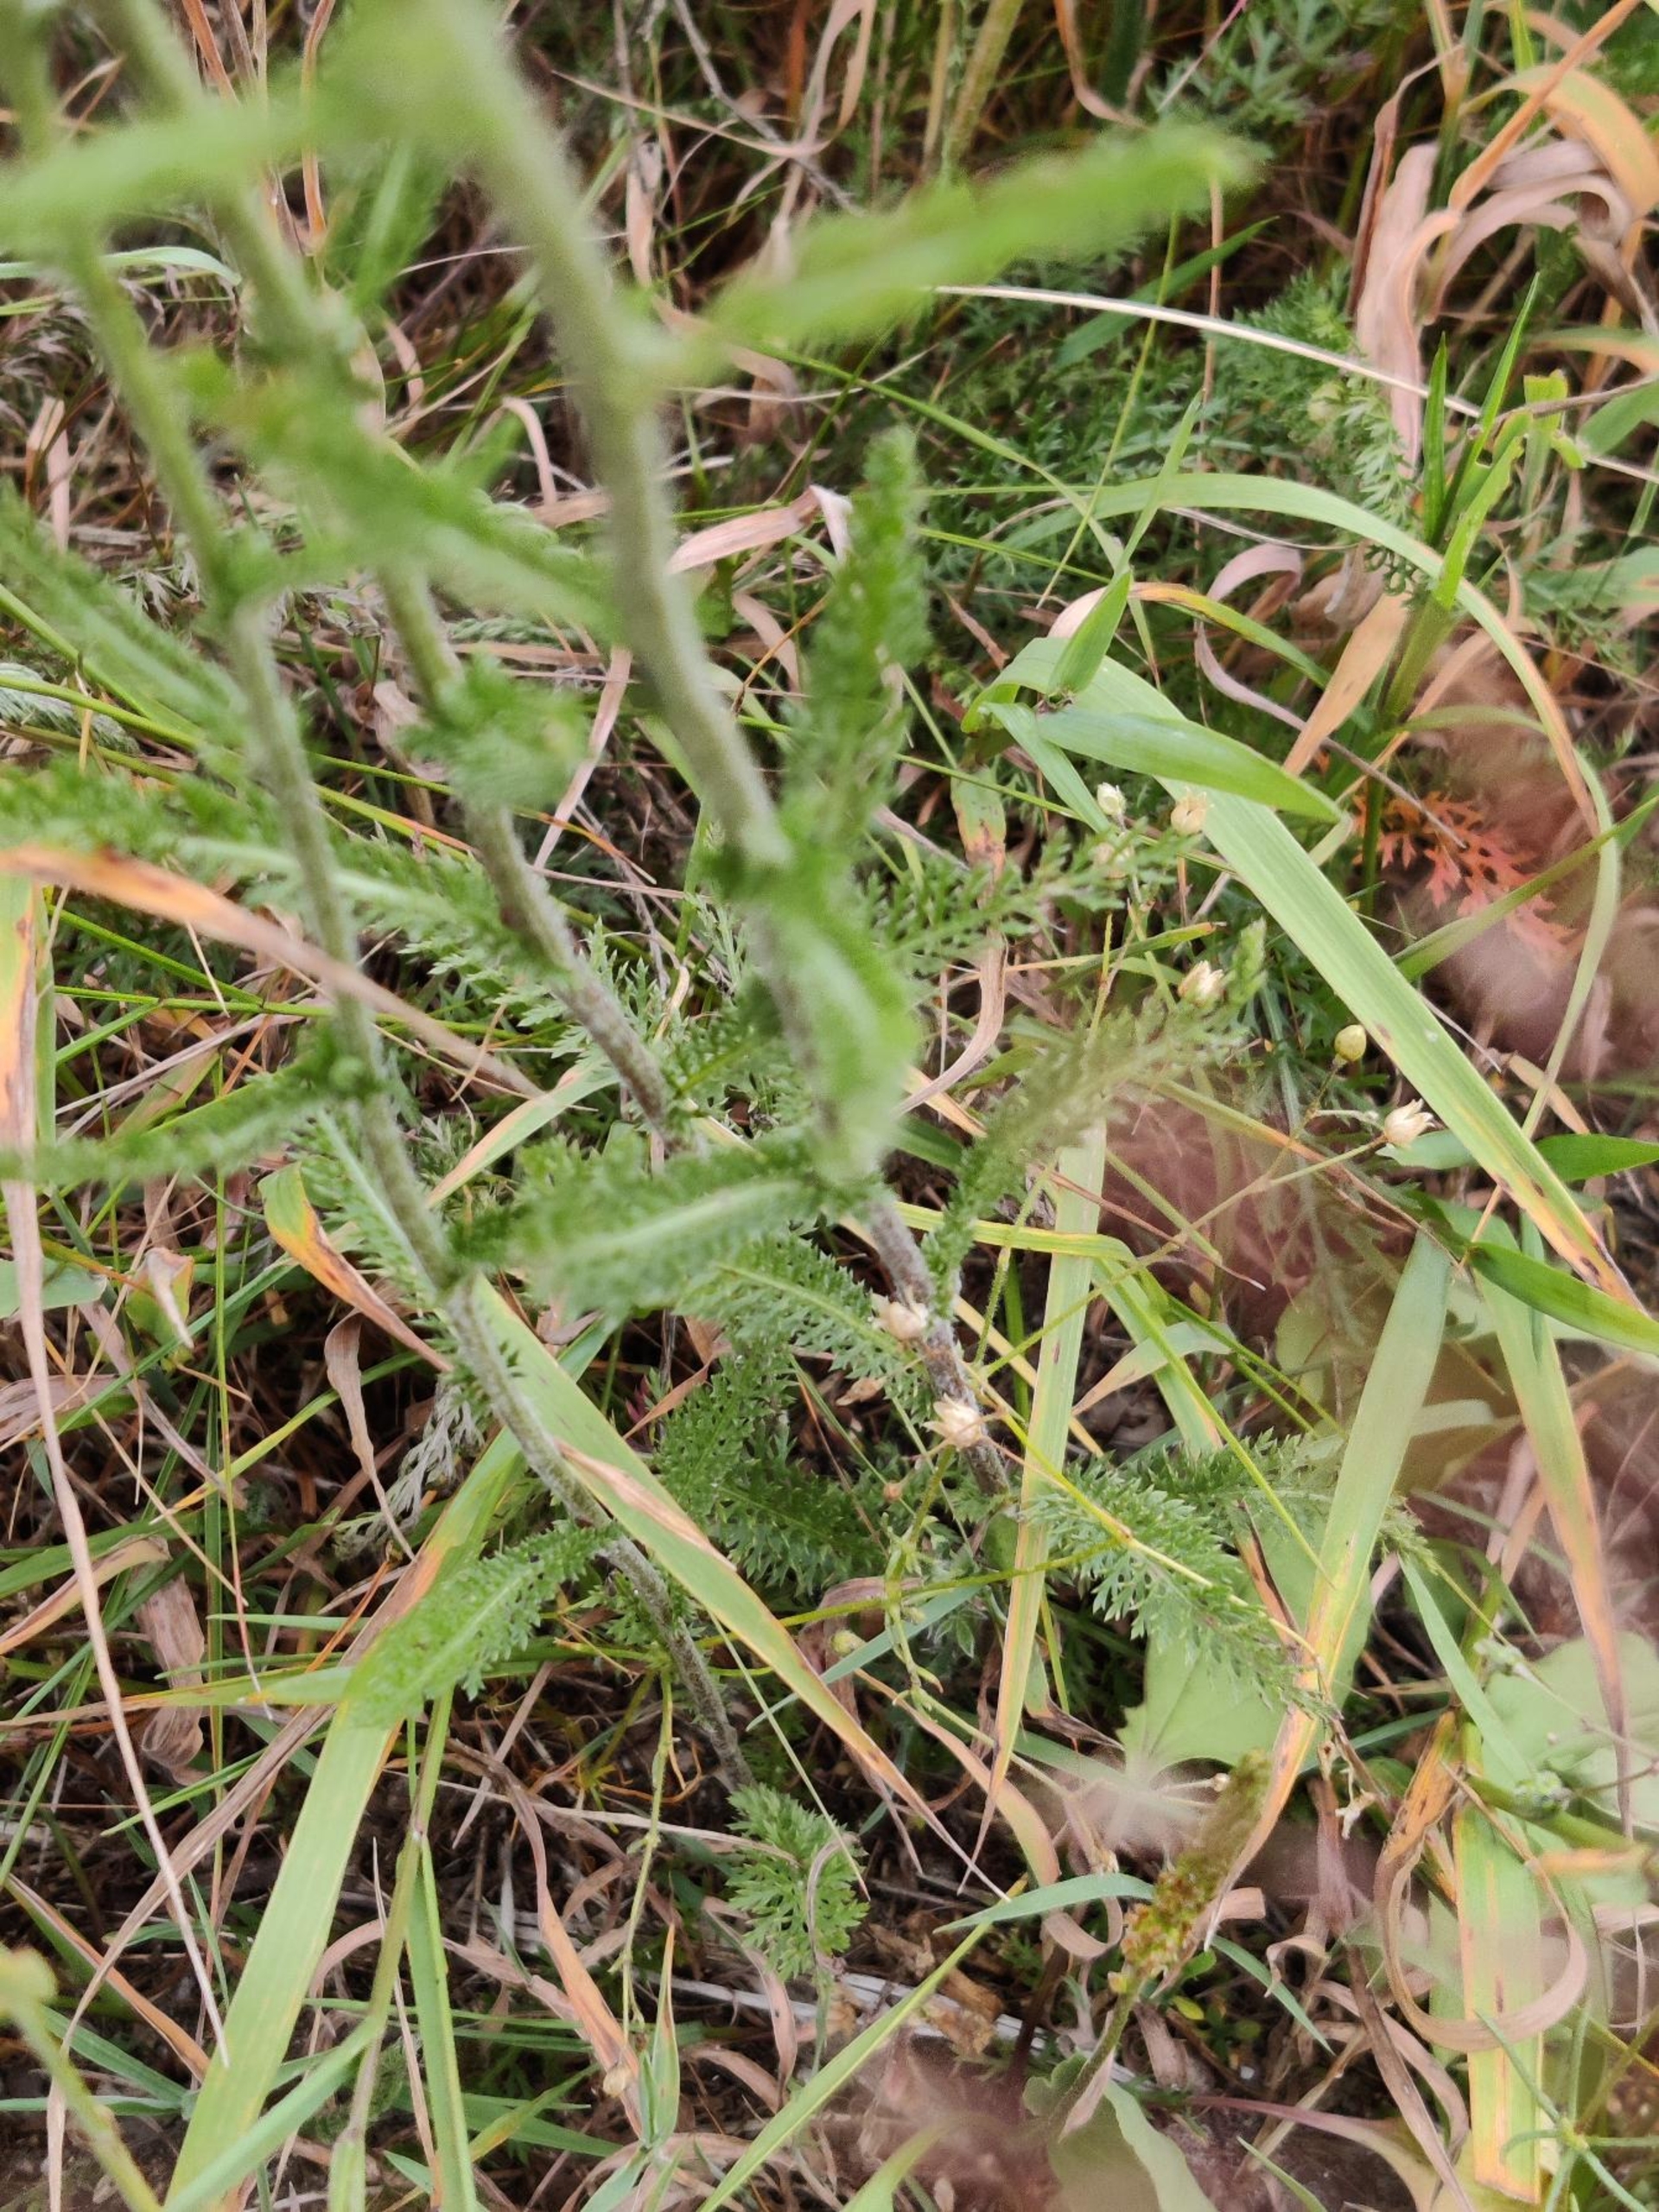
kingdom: Plantae
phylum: Tracheophyta
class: Magnoliopsida
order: Asterales
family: Asteraceae
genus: Achillea
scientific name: Achillea millefolium
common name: Almindelig røllike
